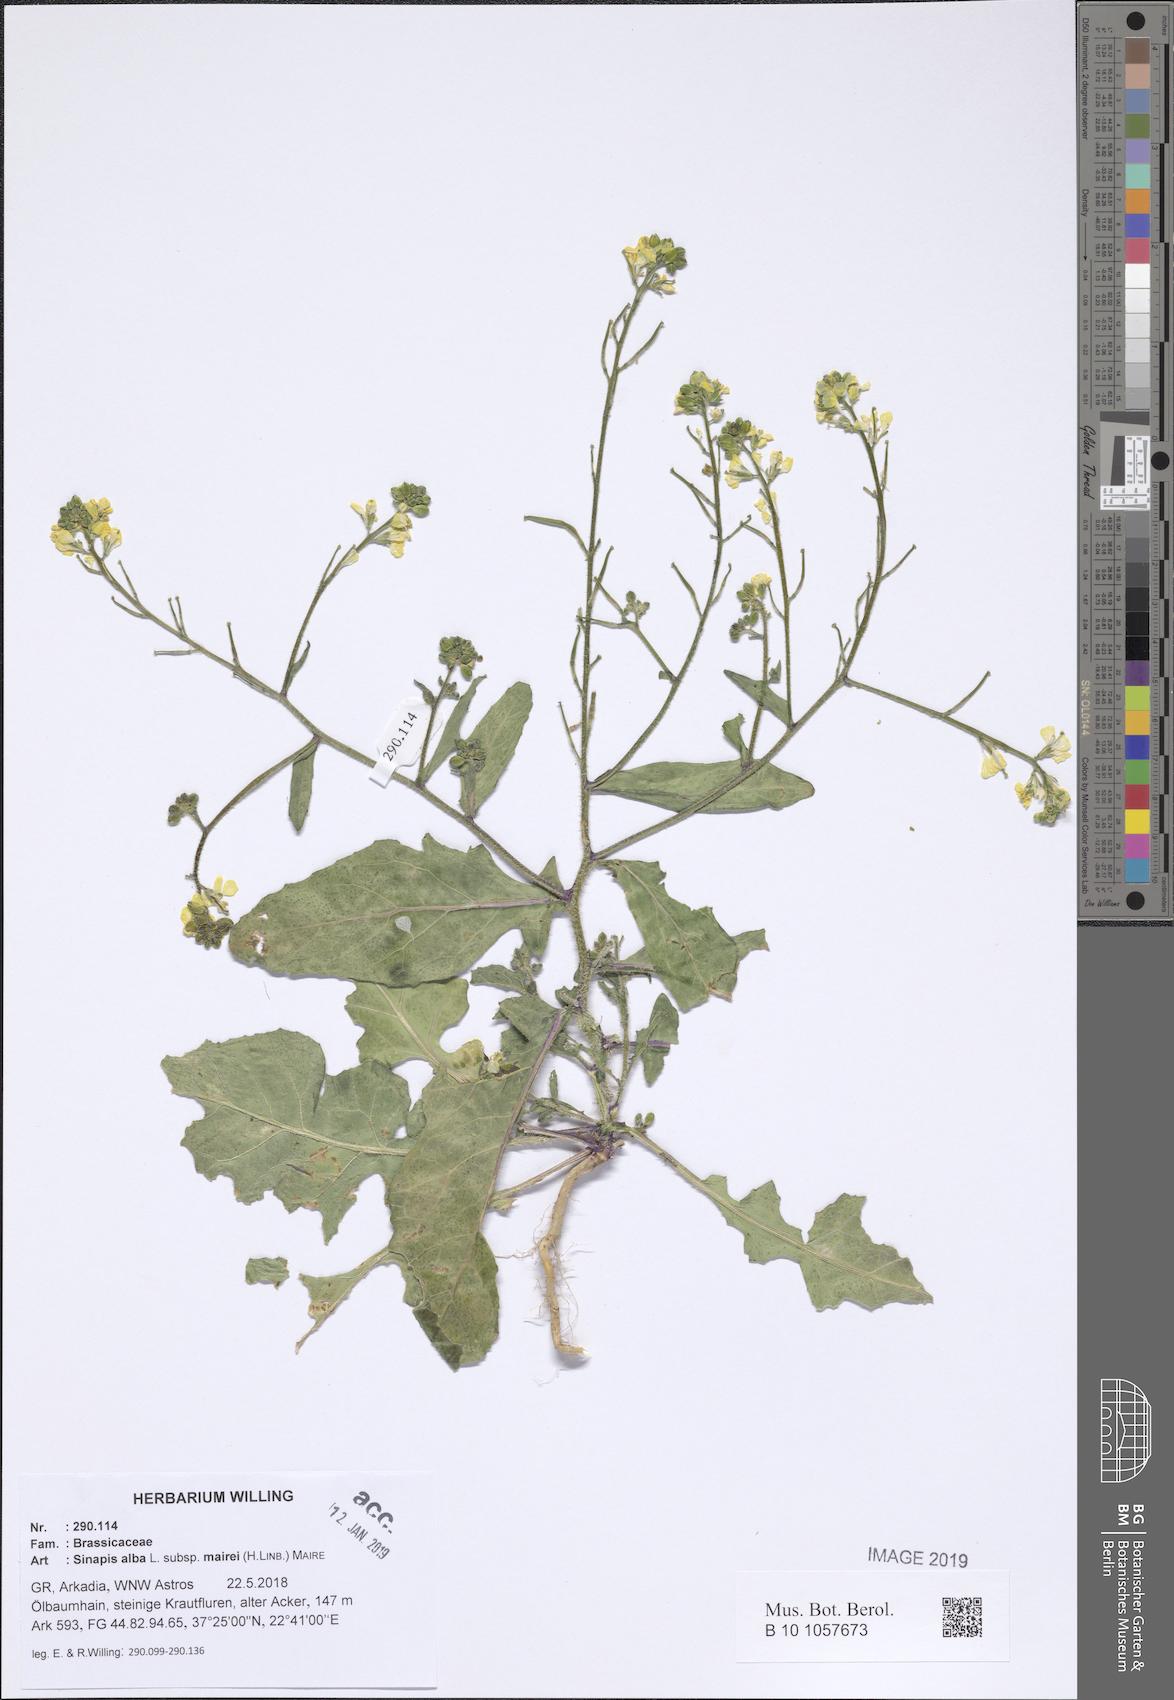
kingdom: Plantae
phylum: Tracheophyta
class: Magnoliopsida
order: Brassicales
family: Brassicaceae
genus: Sinapis
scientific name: Sinapis alba
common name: White mustard
